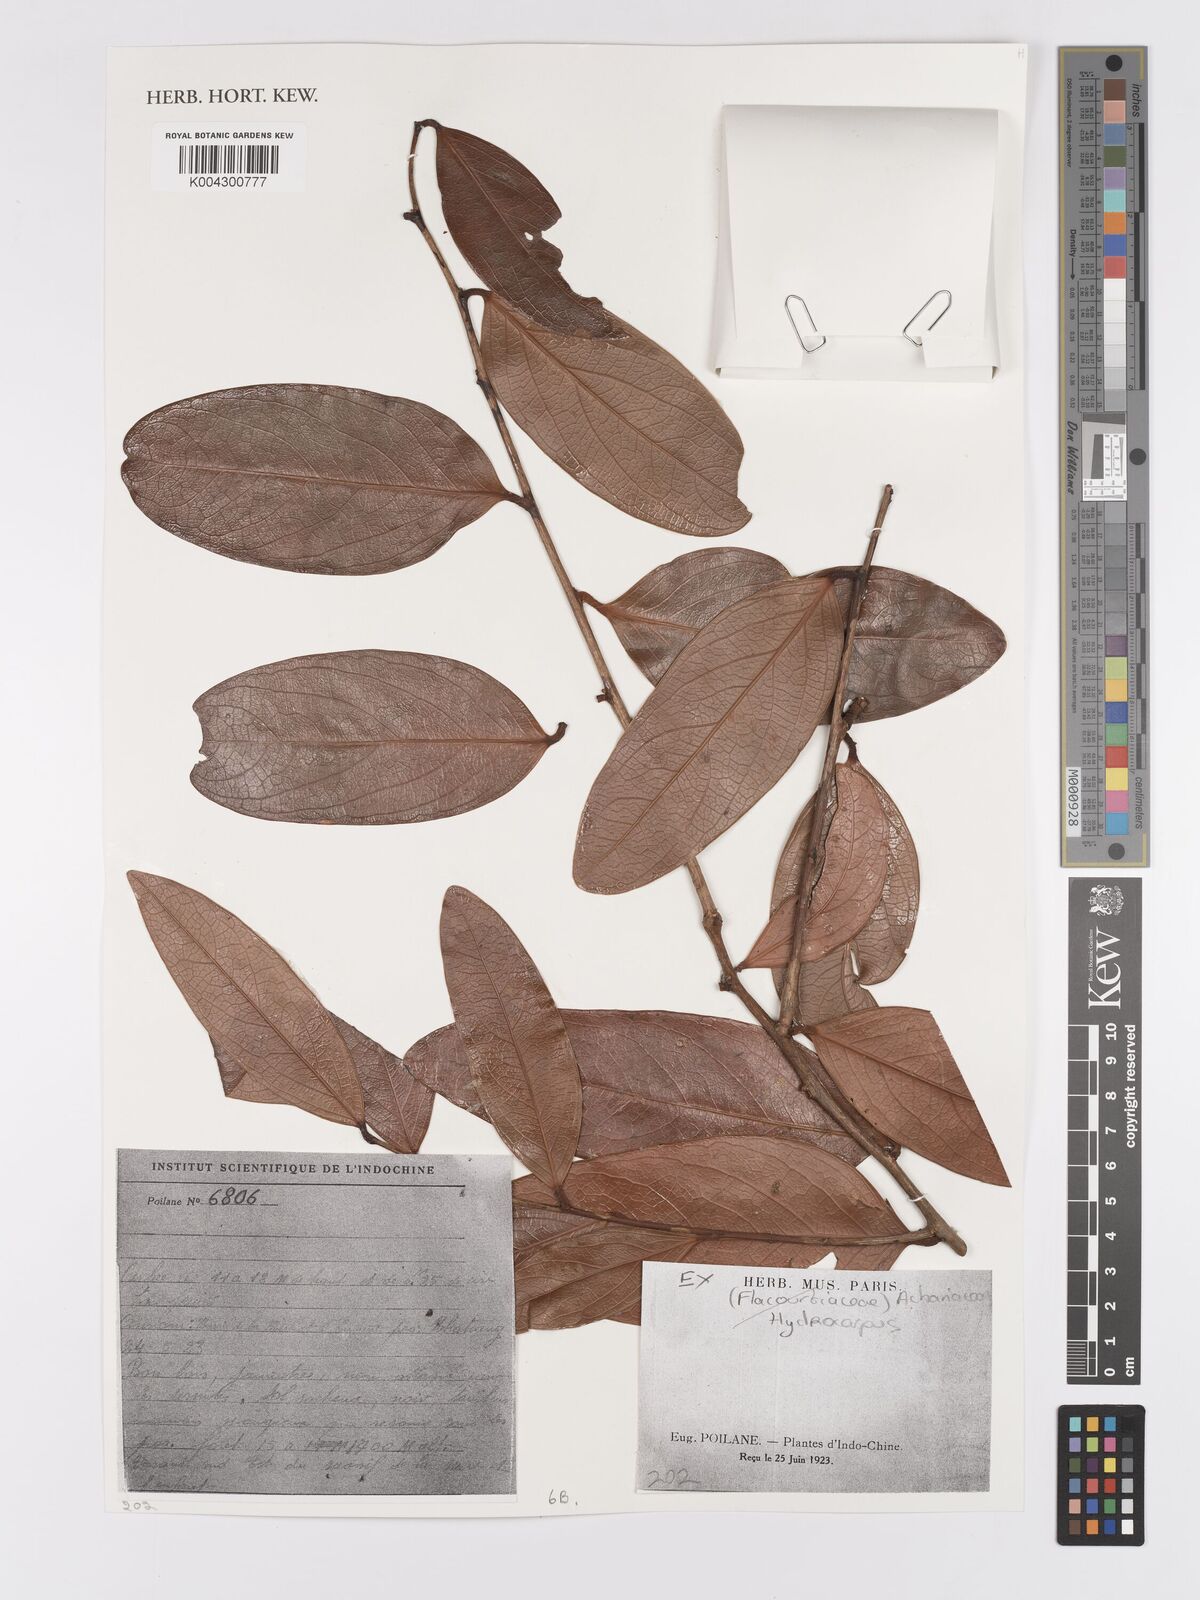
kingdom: Plantae
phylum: Tracheophyta
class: Magnoliopsida
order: Malpighiales
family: Achariaceae
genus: Hydnocarpus
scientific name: Hydnocarpus
